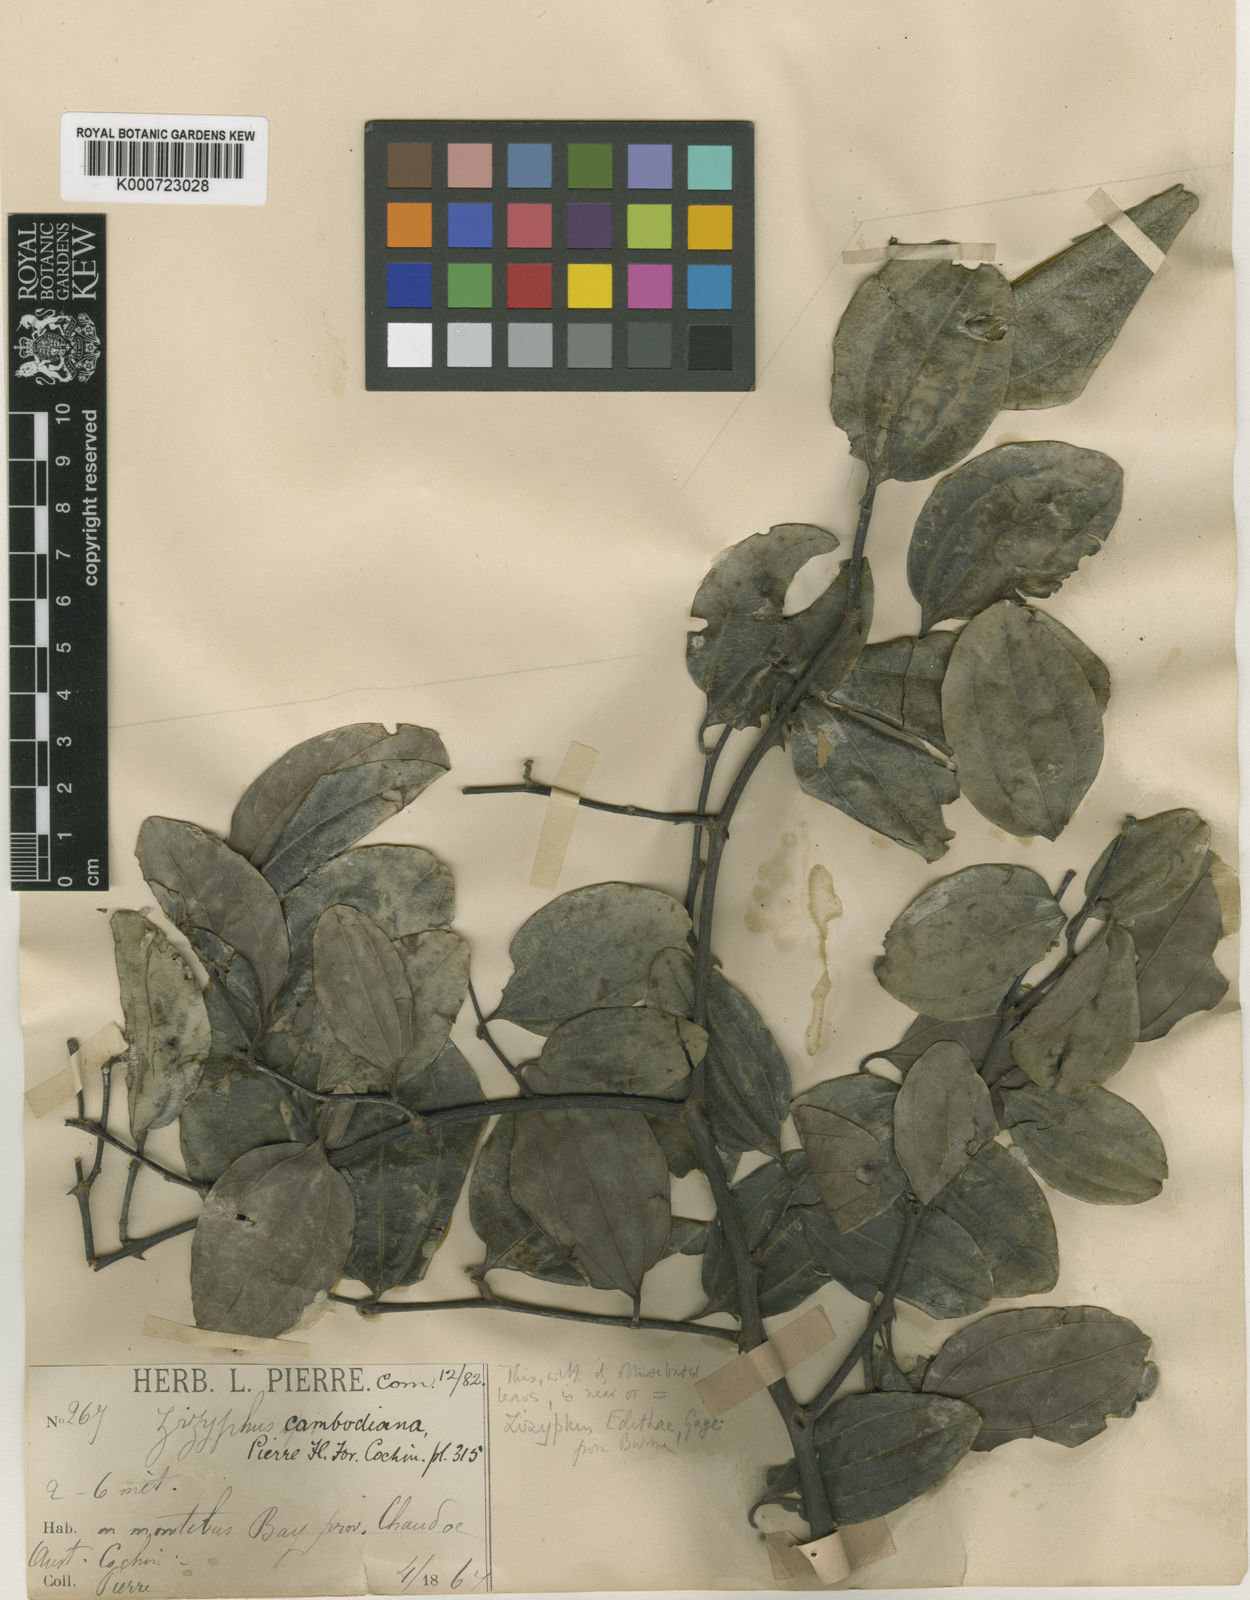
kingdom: Plantae
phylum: Tracheophyta
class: Magnoliopsida
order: Rosales
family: Rhamnaceae
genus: Ziziphus
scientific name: Ziziphus cambodiana
